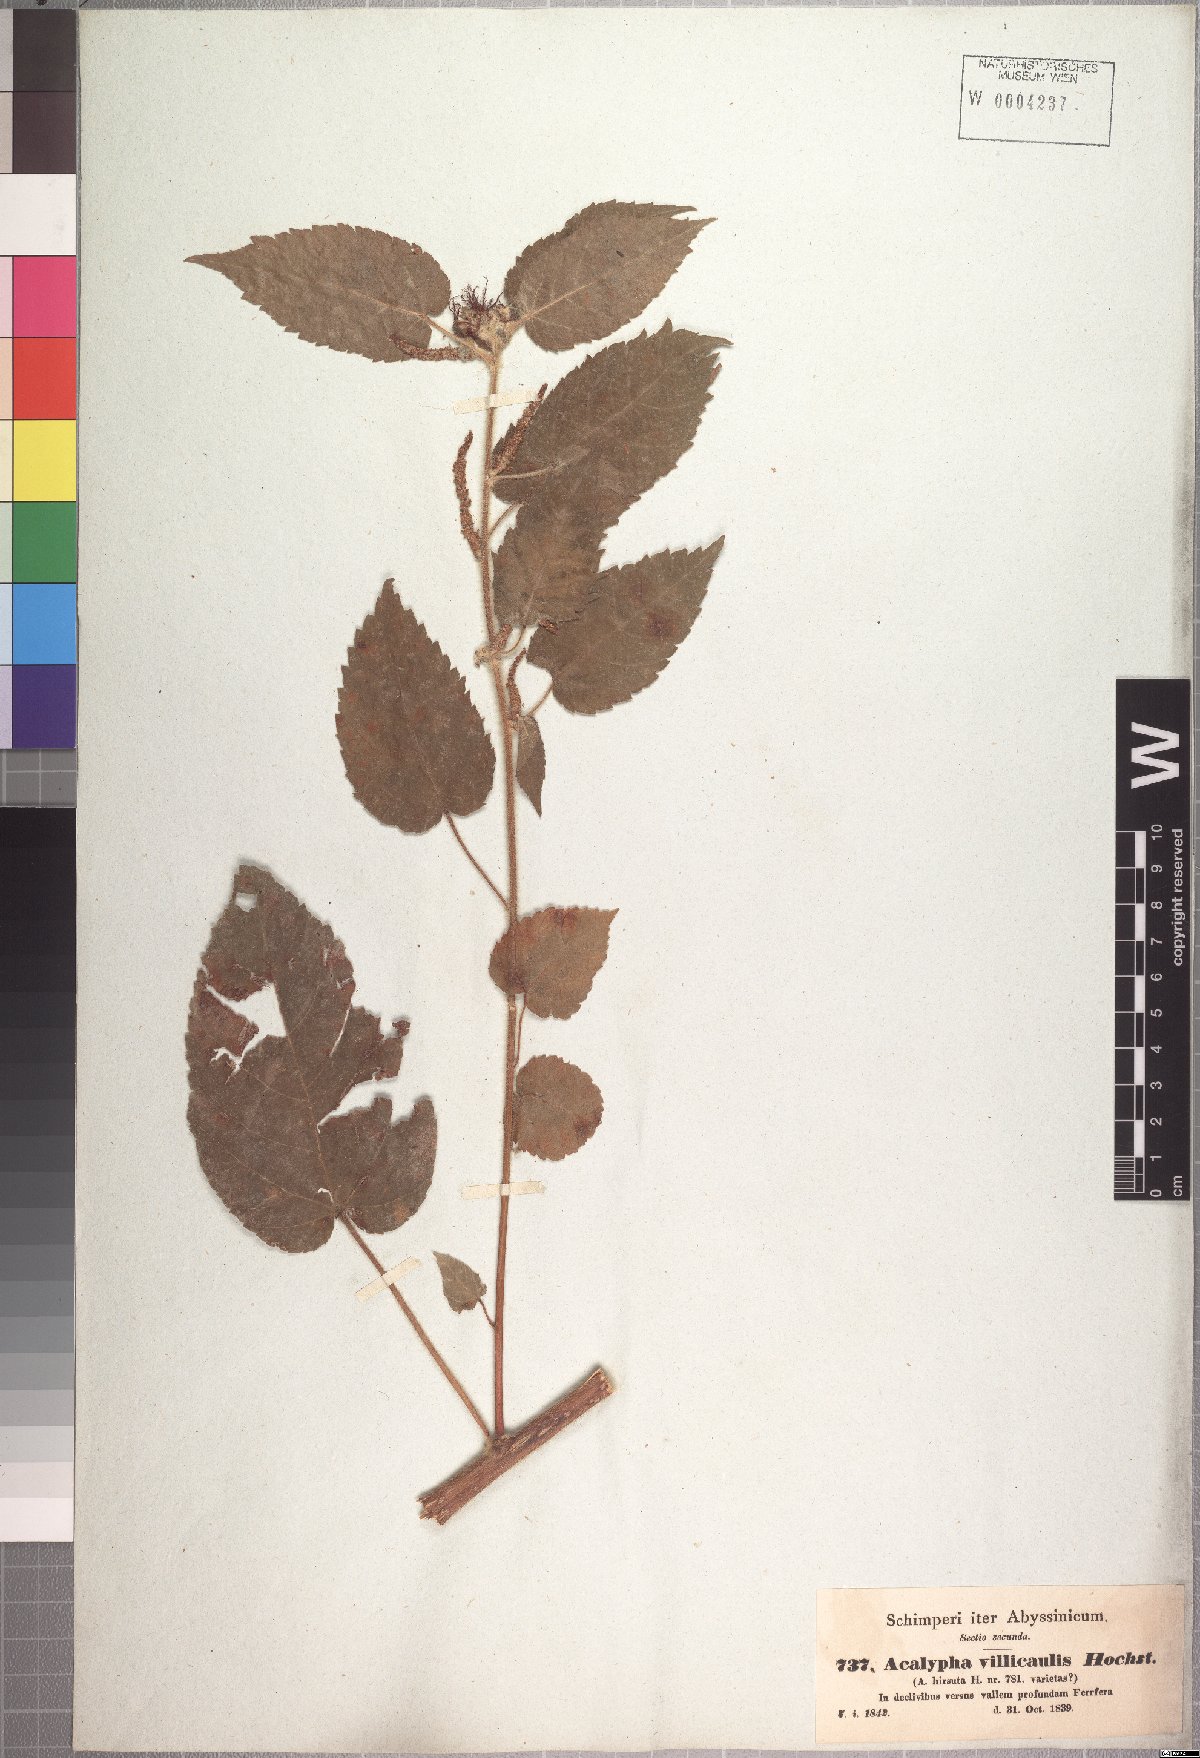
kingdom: Plantae
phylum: Tracheophyta
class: Magnoliopsida
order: Malpighiales
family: Euphorbiaceae
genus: Acalypha
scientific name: Acalypha petiolaris
